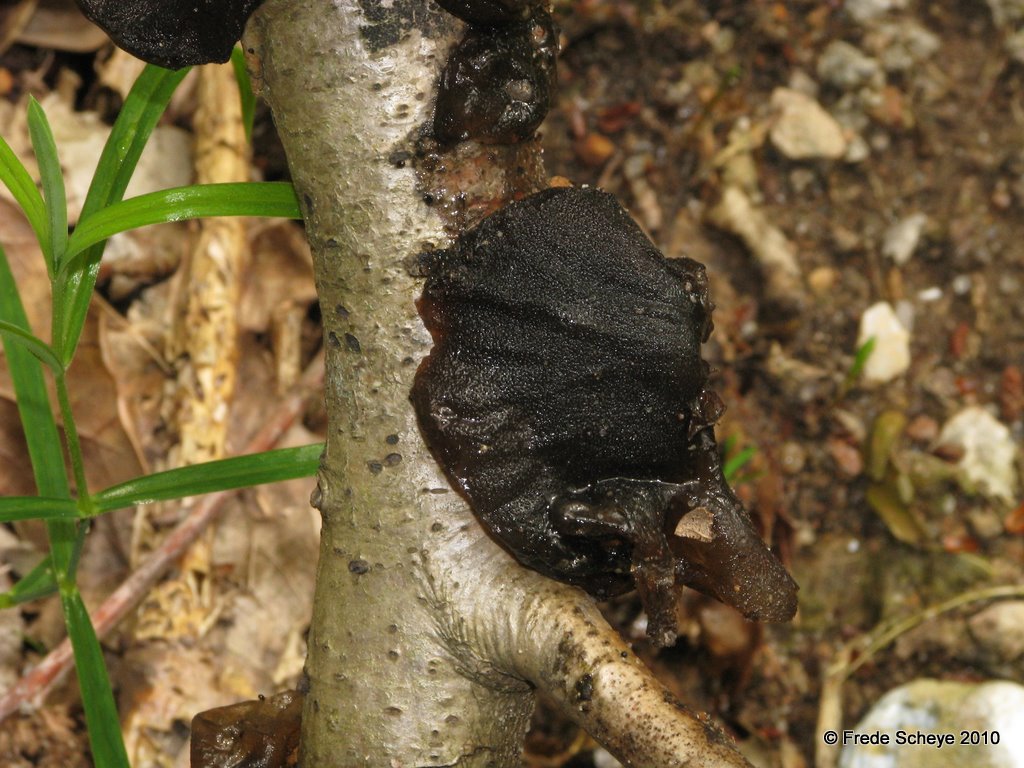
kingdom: Fungi
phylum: Basidiomycota
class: Agaricomycetes
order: Auriculariales
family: Auriculariaceae
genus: Exidia
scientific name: Exidia glandulosa
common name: ege-bævretop
